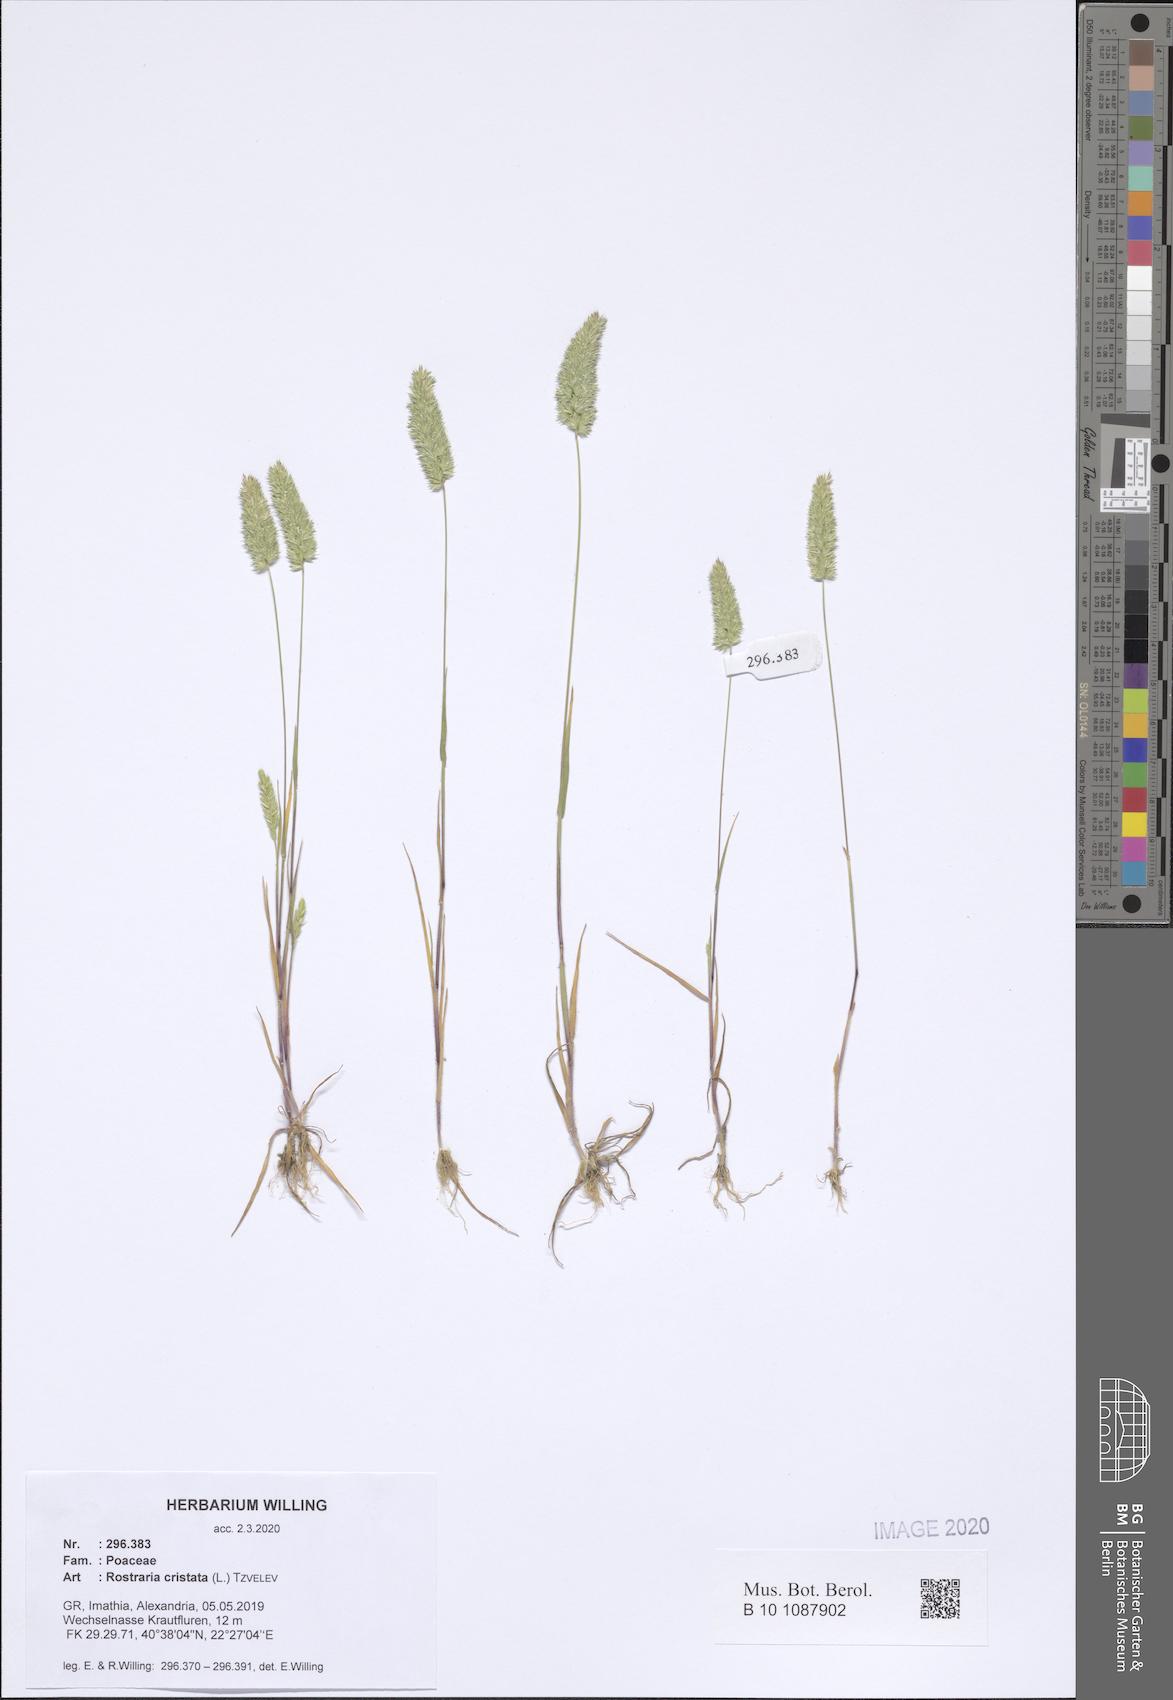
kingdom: Plantae
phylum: Tracheophyta
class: Liliopsida
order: Poales
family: Poaceae
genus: Rostraria
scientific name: Rostraria cristata
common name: Mediterranean hair-grass
